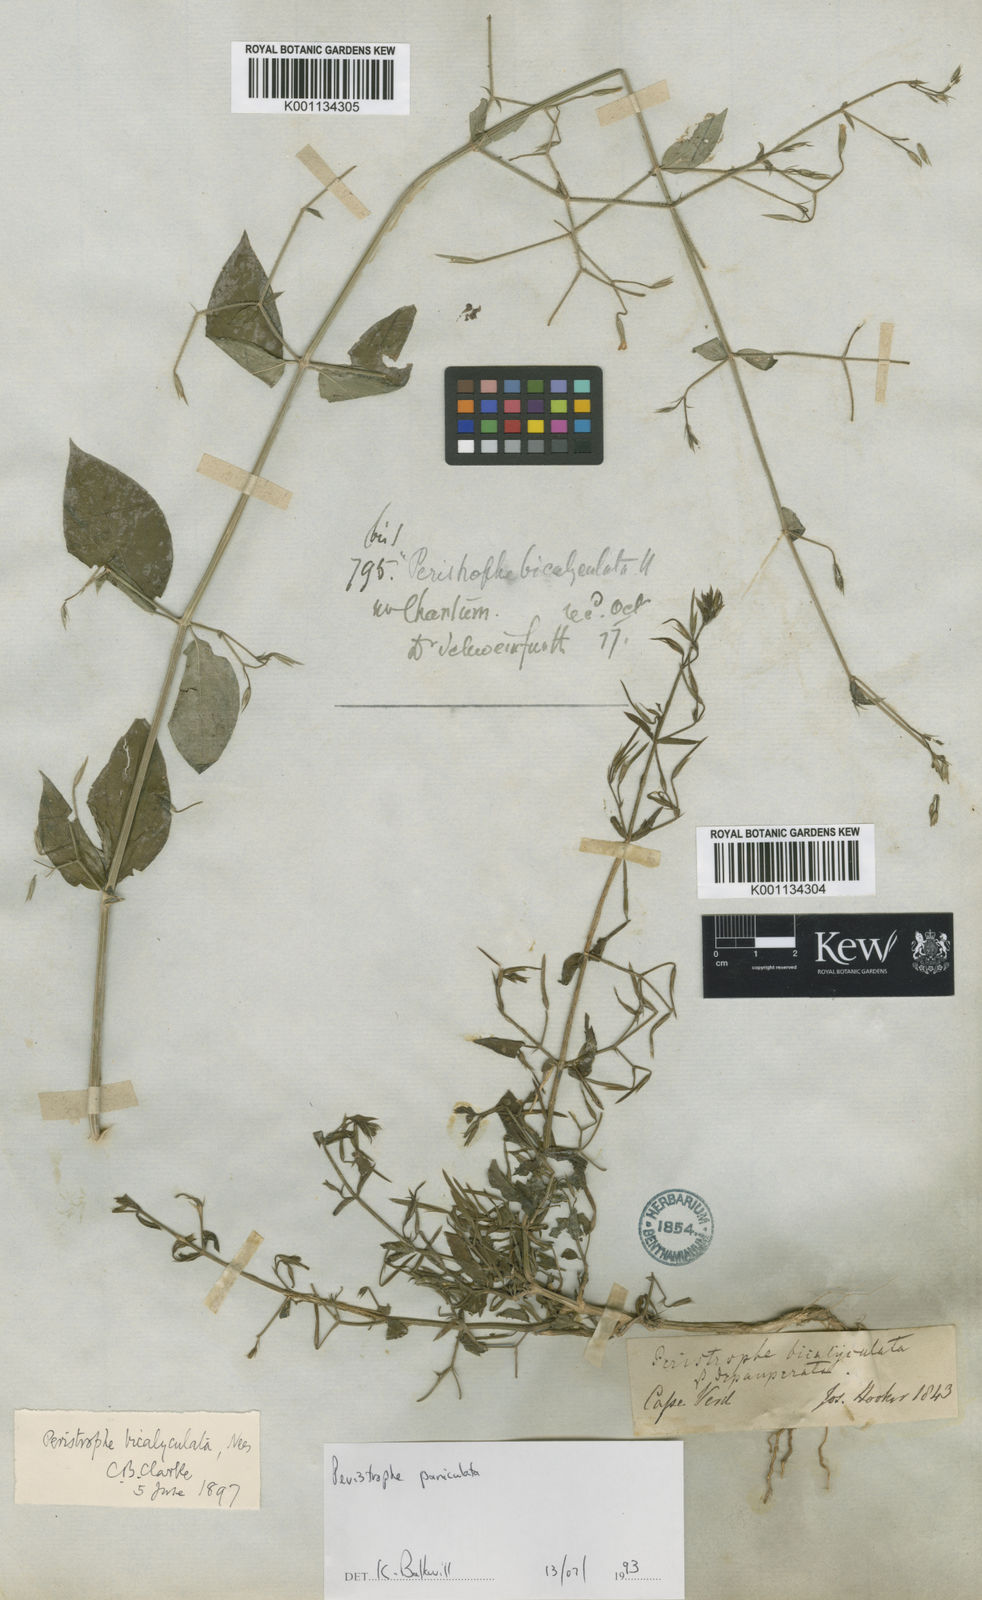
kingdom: Plantae
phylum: Tracheophyta
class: Magnoliopsida
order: Lamiales
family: Acanthaceae
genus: Dicliptera
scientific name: Dicliptera paniculata
